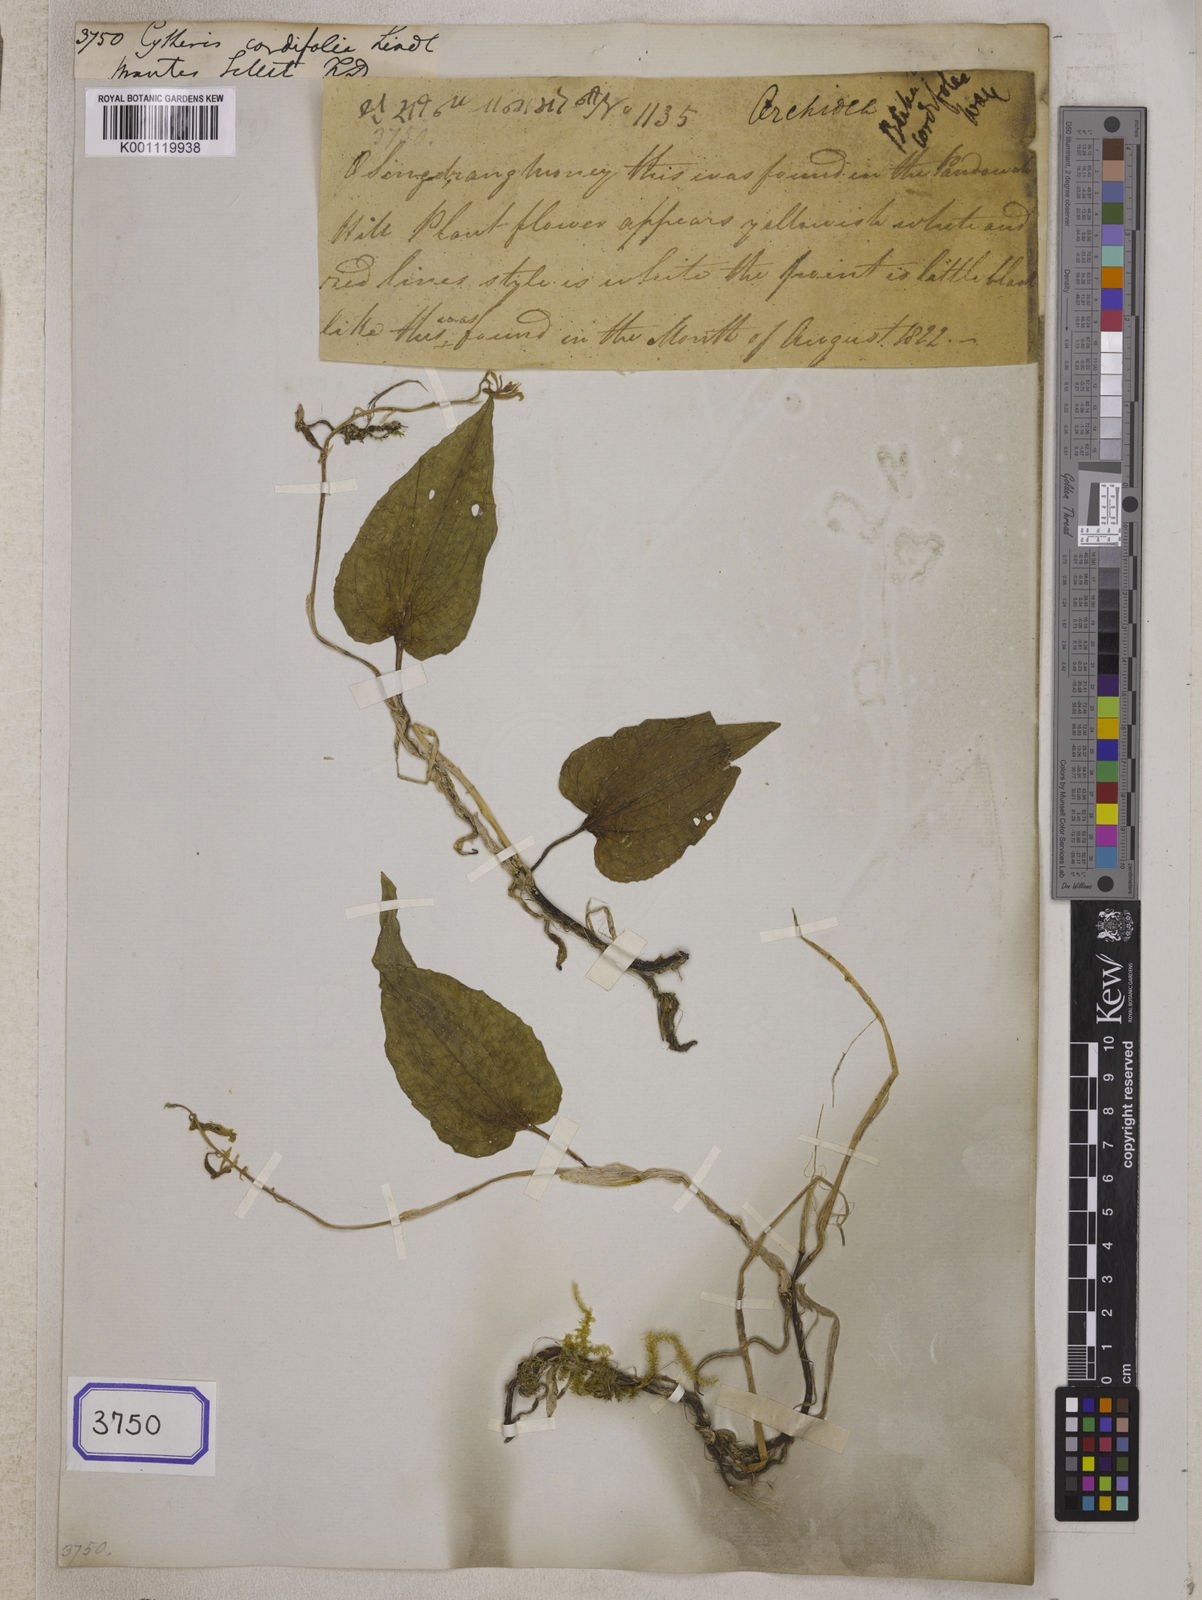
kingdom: Plantae
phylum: Tracheophyta
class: Liliopsida
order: Asparagales
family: Orchidaceae
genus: Nephelaphyllum
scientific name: Nephelaphyllum cordifolium
